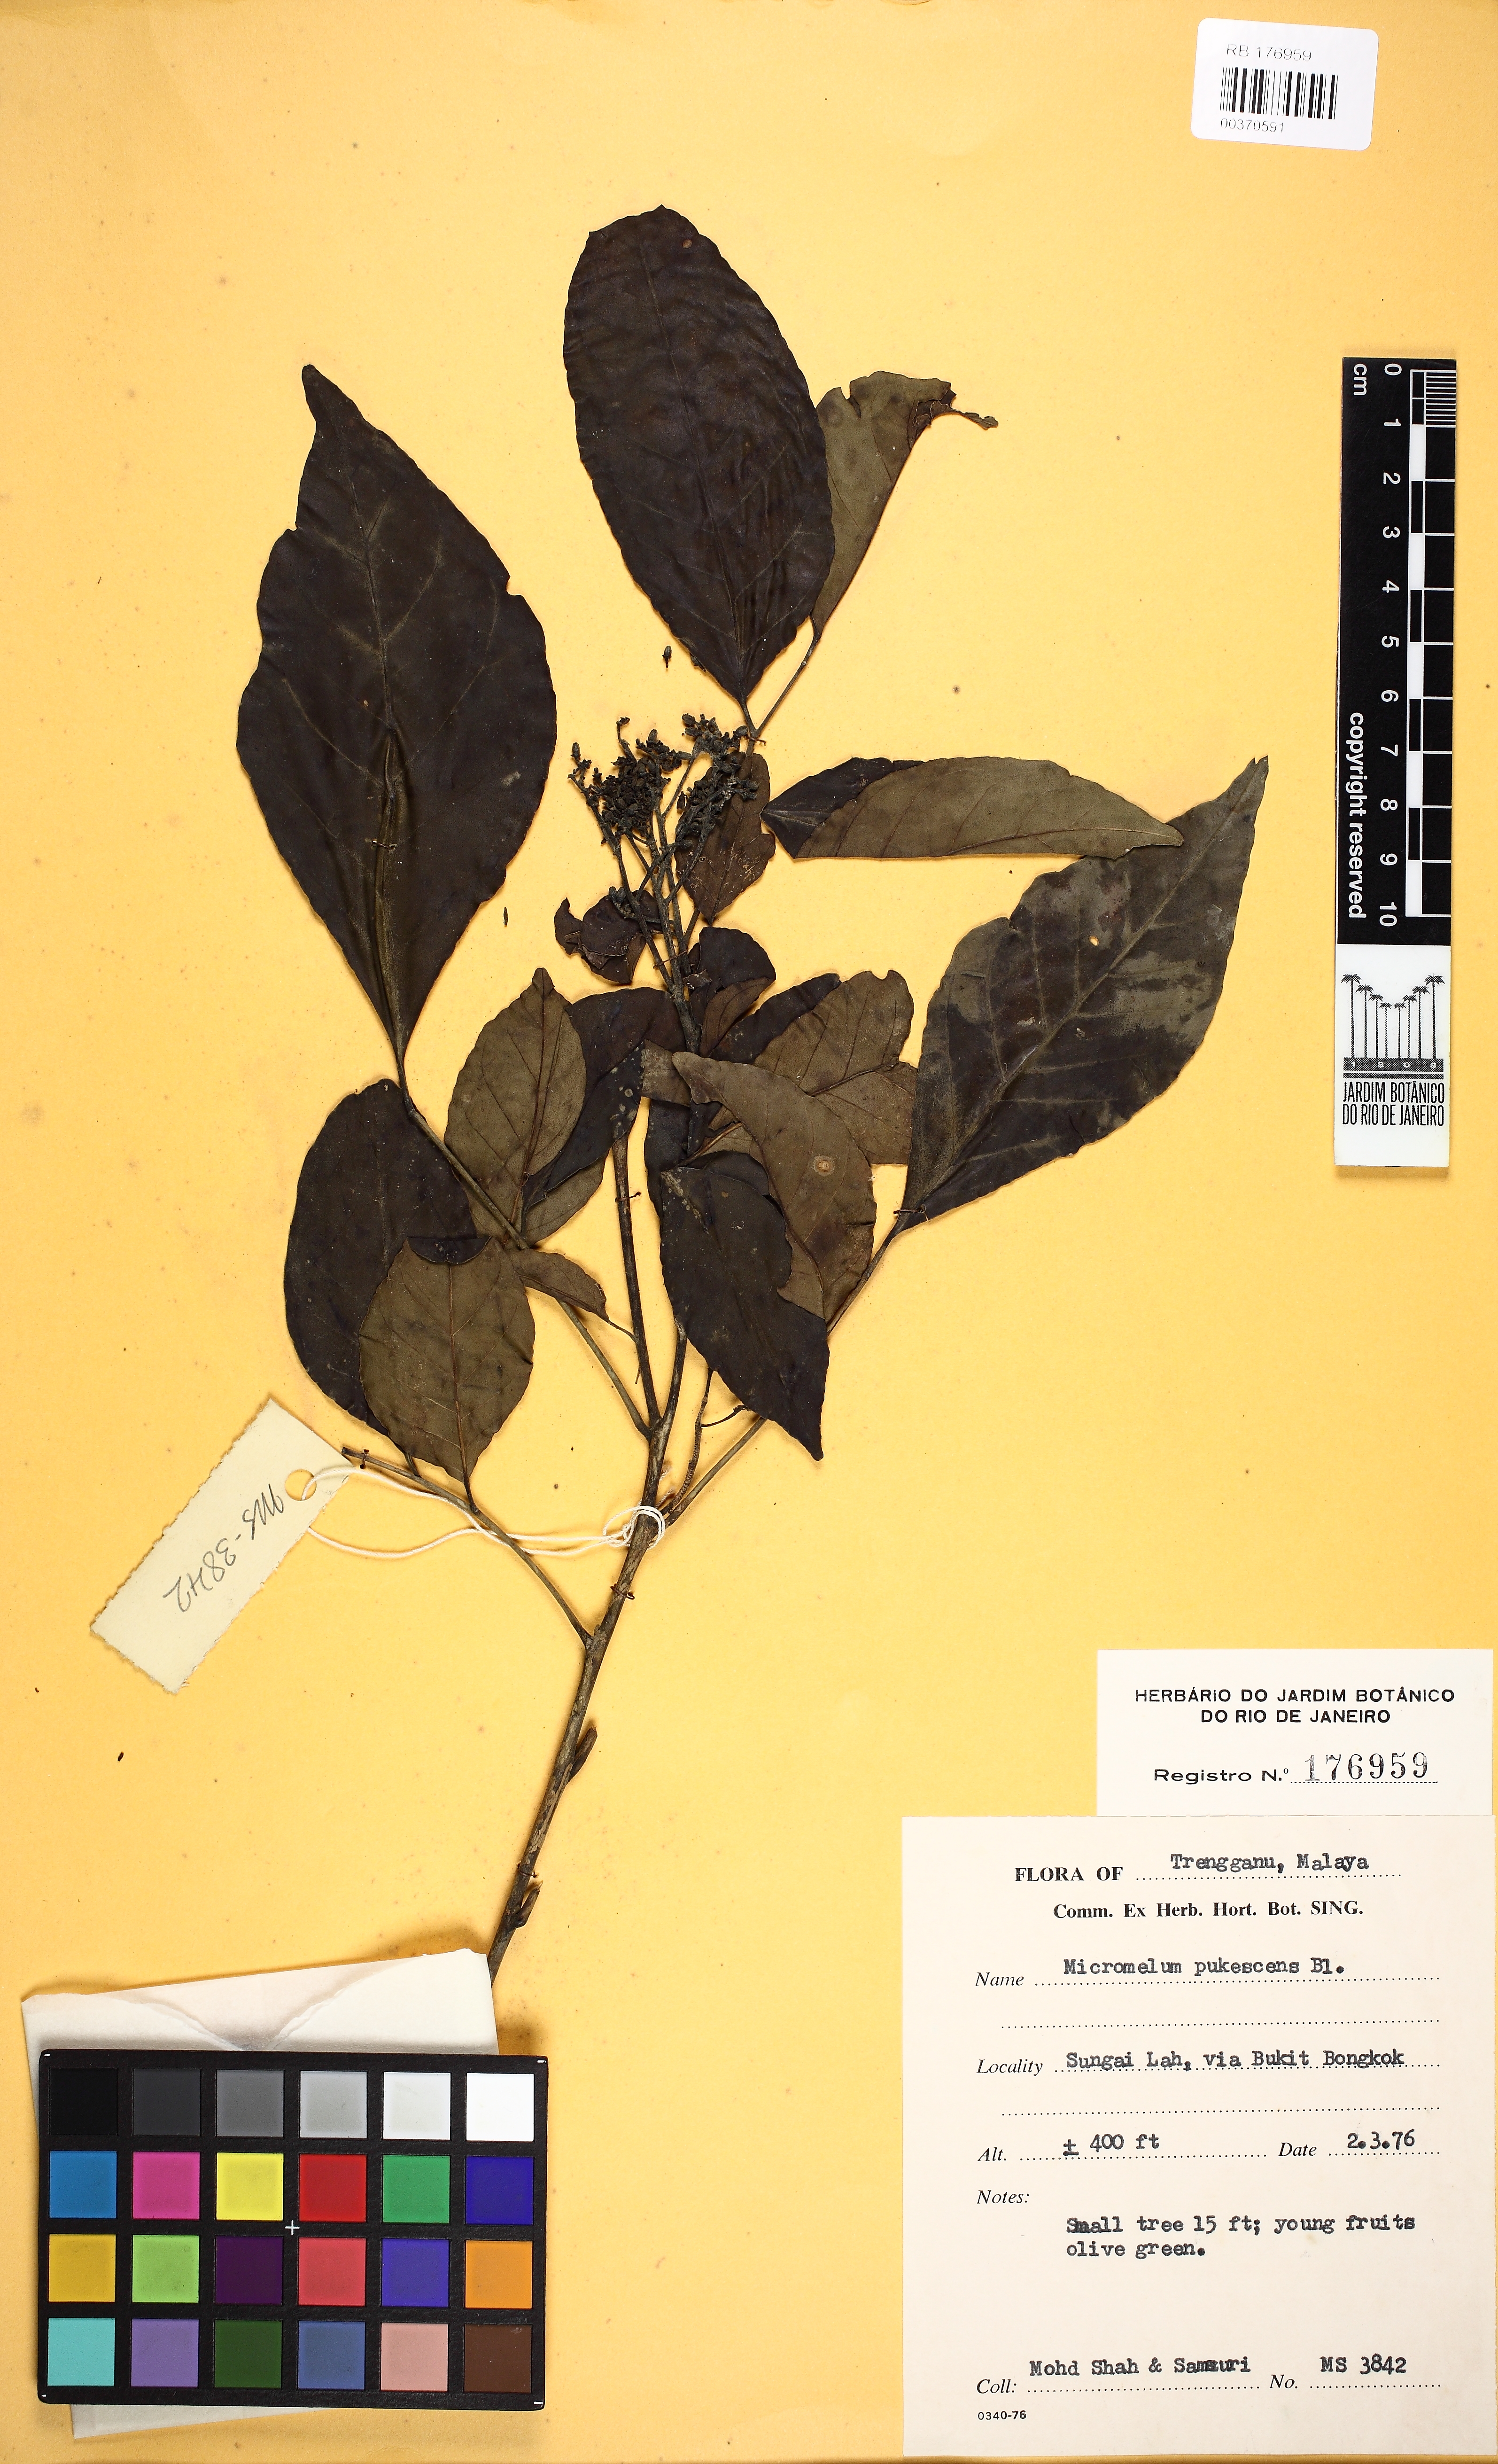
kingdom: Plantae
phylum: Tracheophyta
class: Magnoliopsida
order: Sapindales
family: Rutaceae
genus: Micromelum
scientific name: Micromelum minutum
